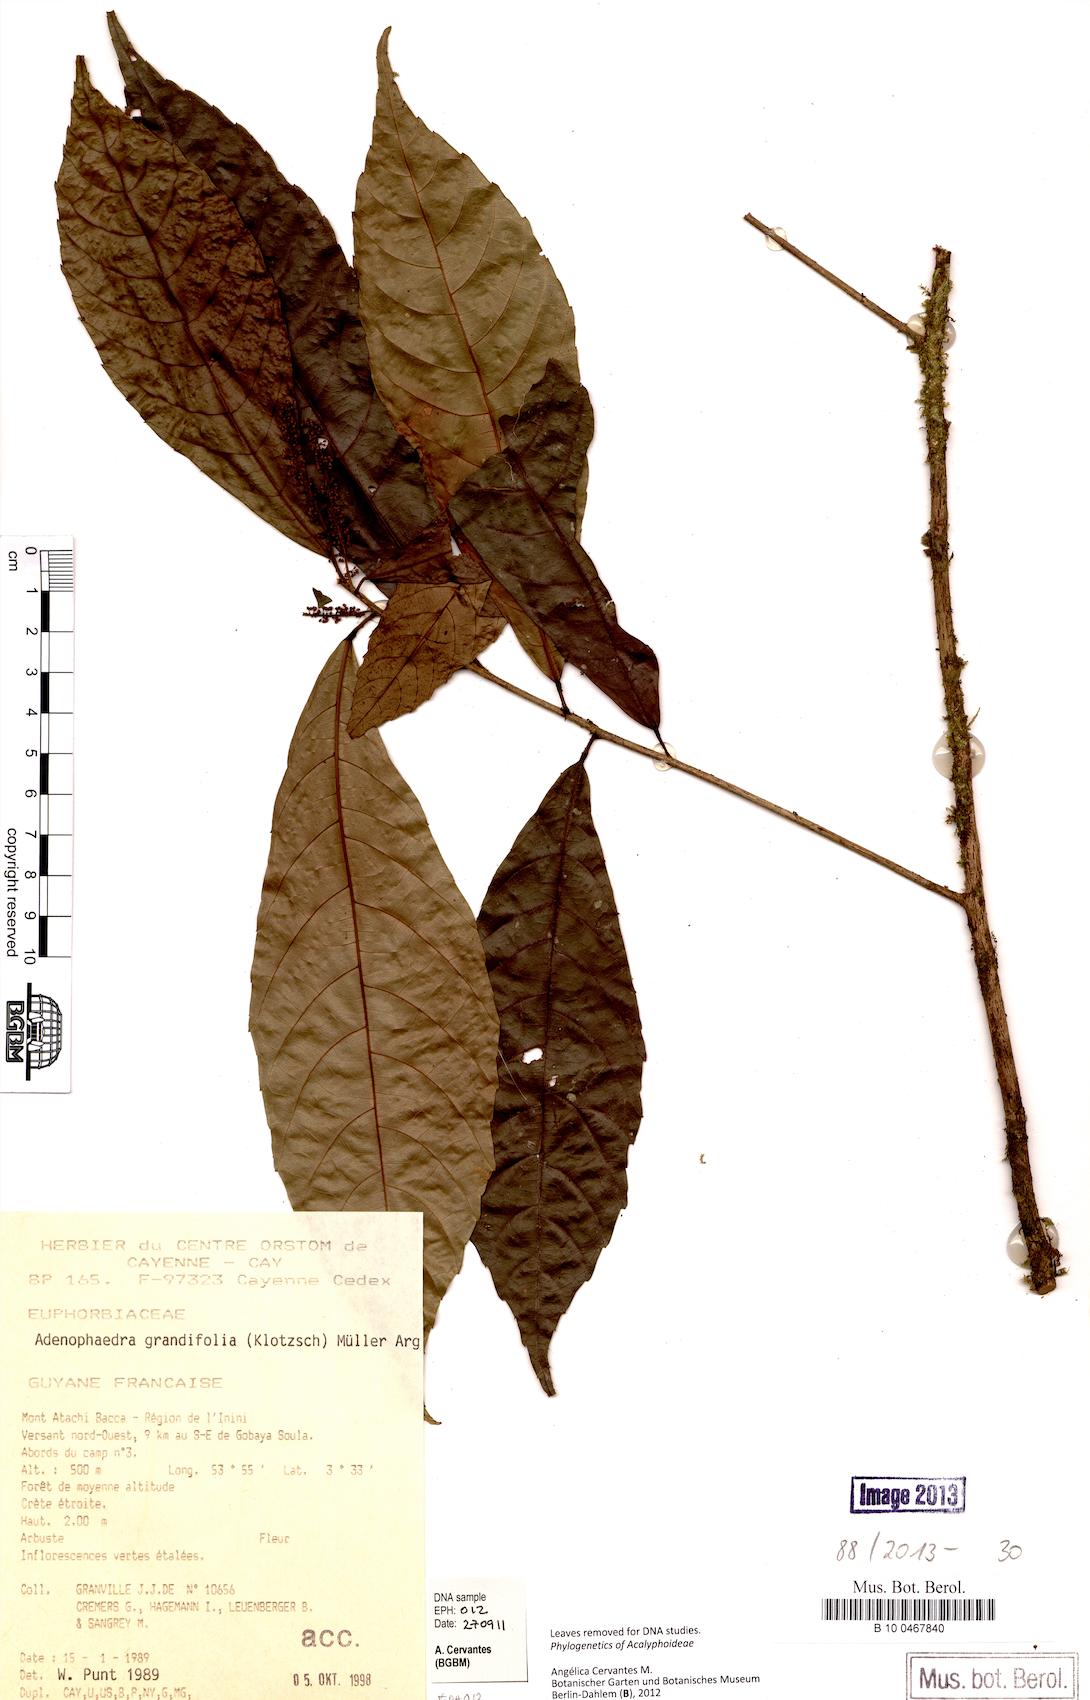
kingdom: Plantae
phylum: Tracheophyta
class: Magnoliopsida
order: Malpighiales
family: Euphorbiaceae
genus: Adenophaedra
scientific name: Adenophaedra grandifolia
